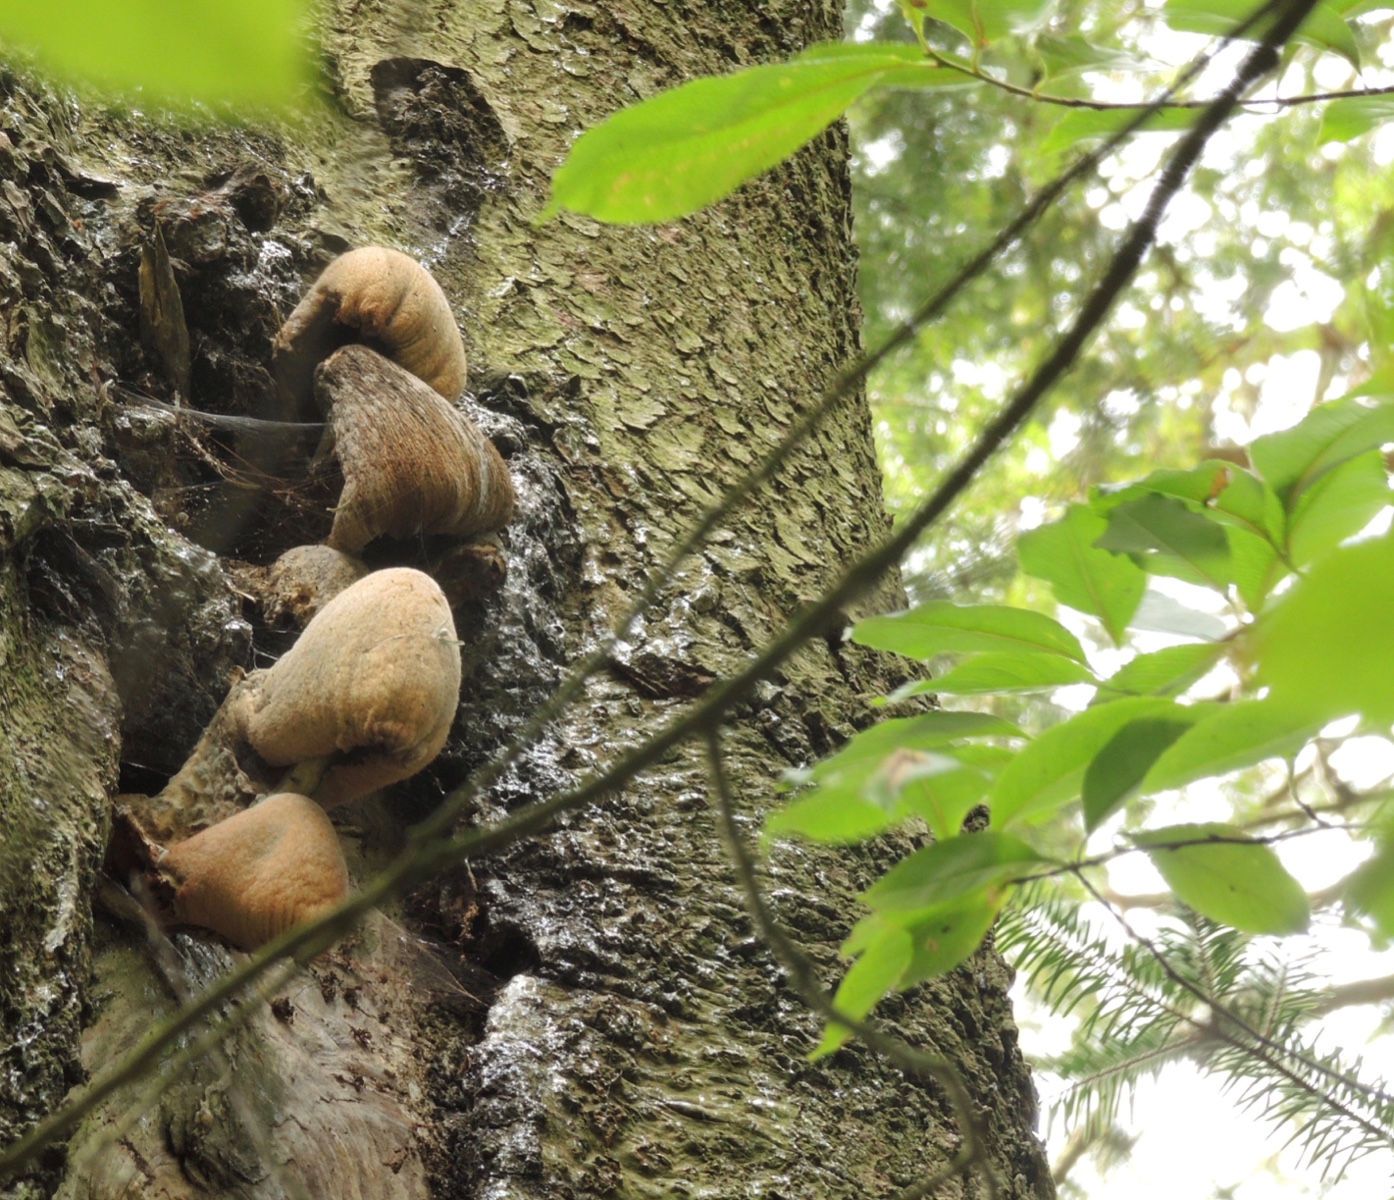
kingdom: Fungi
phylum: Basidiomycota
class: Agaricomycetes
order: Agaricales
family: Pluteaceae
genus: Volvariella
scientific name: Volvariella bombycina
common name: silkehåret posesvamp
